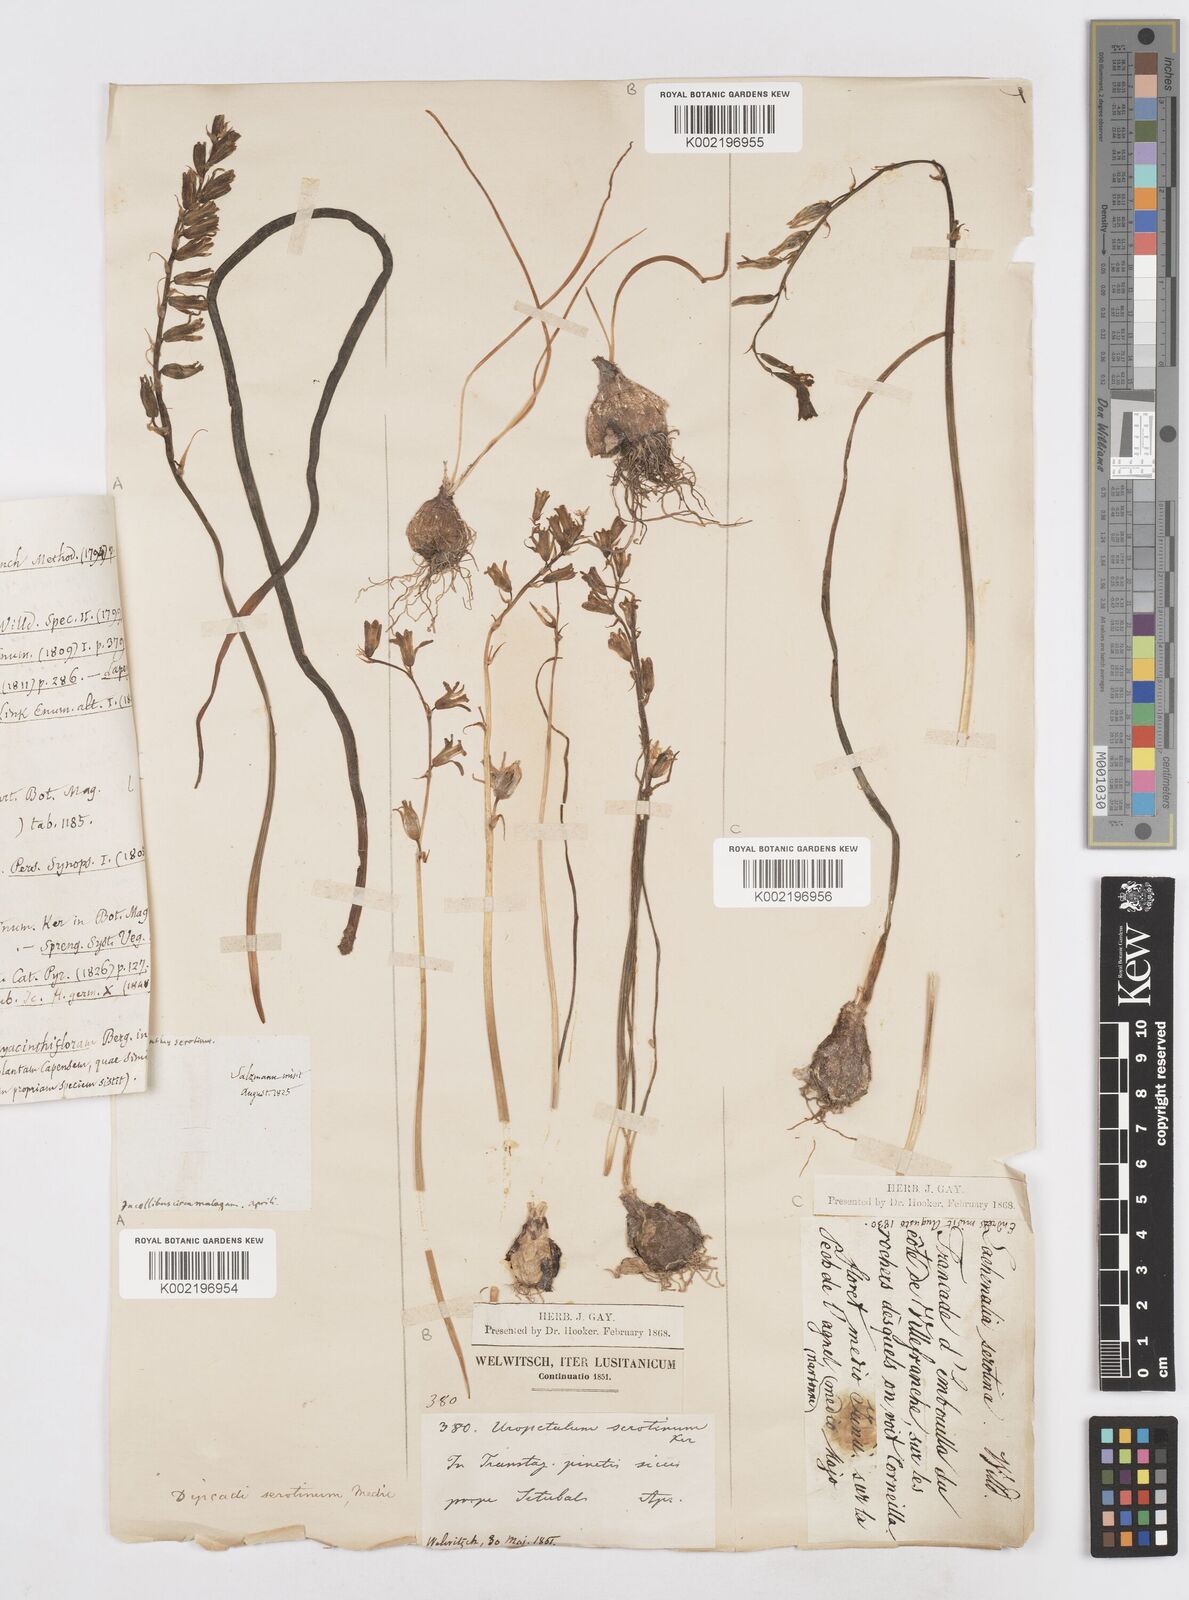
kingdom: Plantae
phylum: Tracheophyta
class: Liliopsida
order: Asparagales
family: Asparagaceae
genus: Dipcadi
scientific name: Dipcadi serotinum
